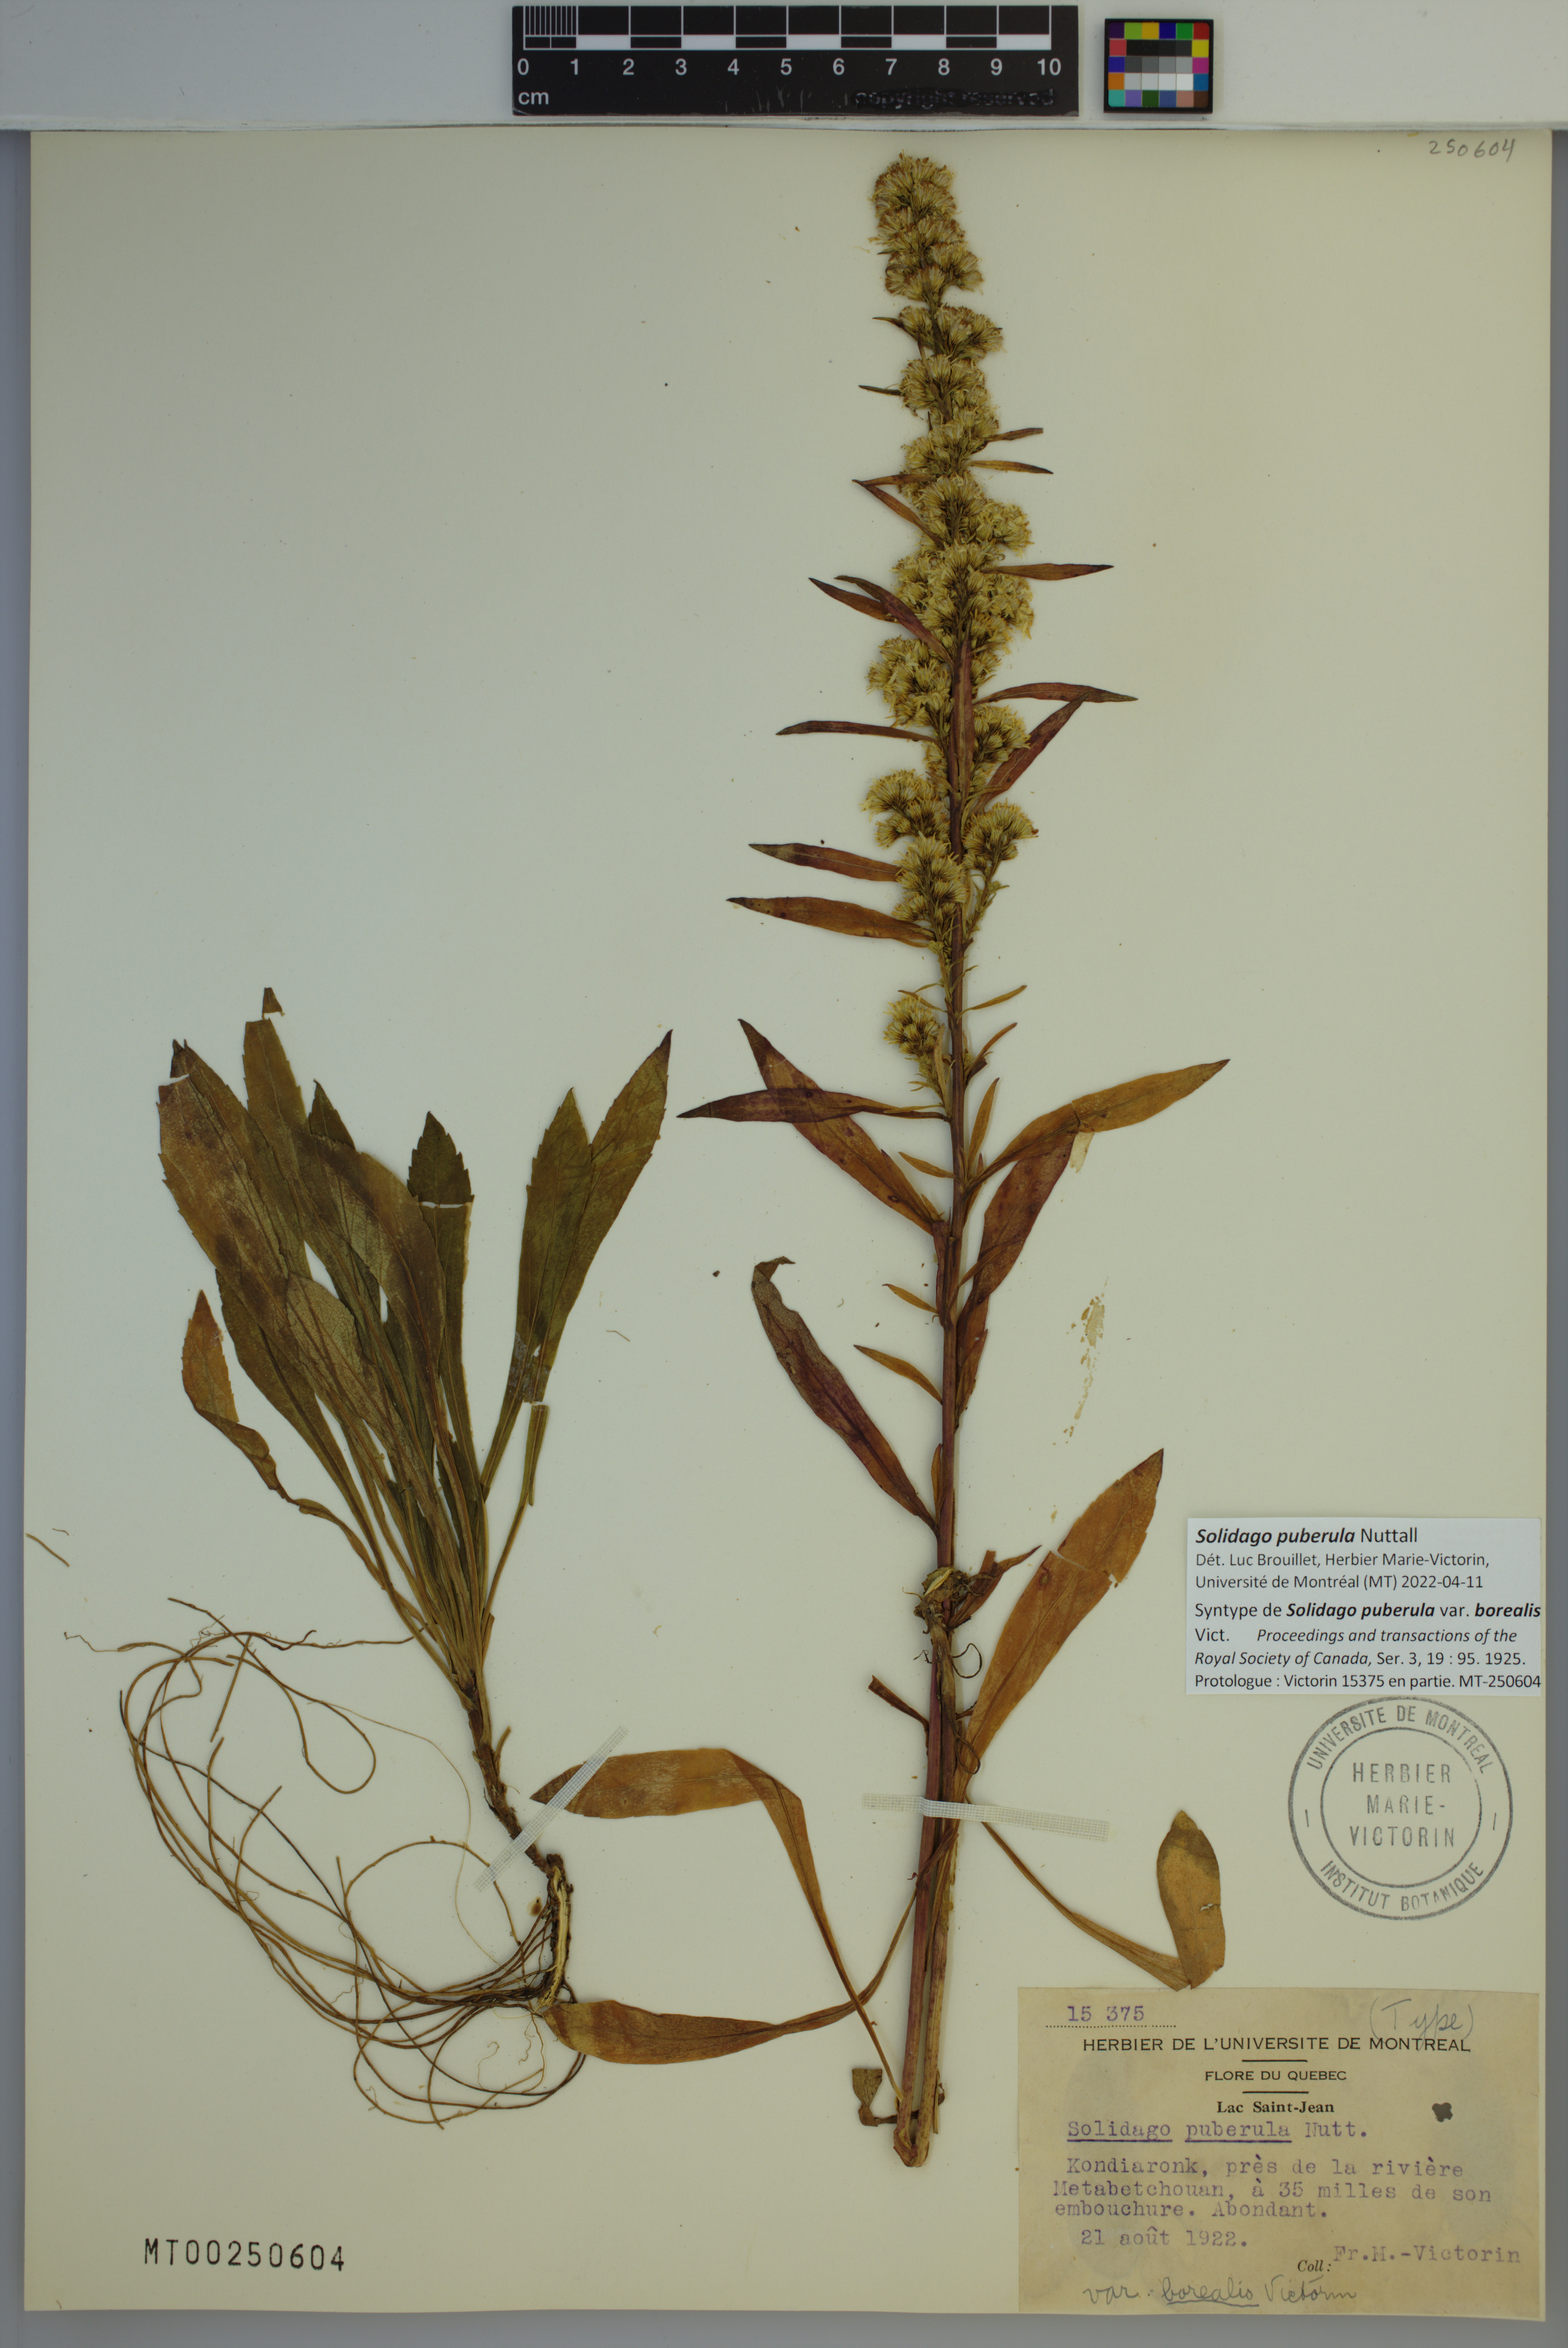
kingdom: Plantae
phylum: Tracheophyta
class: Magnoliopsida
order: Asterales
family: Asteraceae
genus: Solidago
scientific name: Solidago puberula
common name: Downy goldenrod
